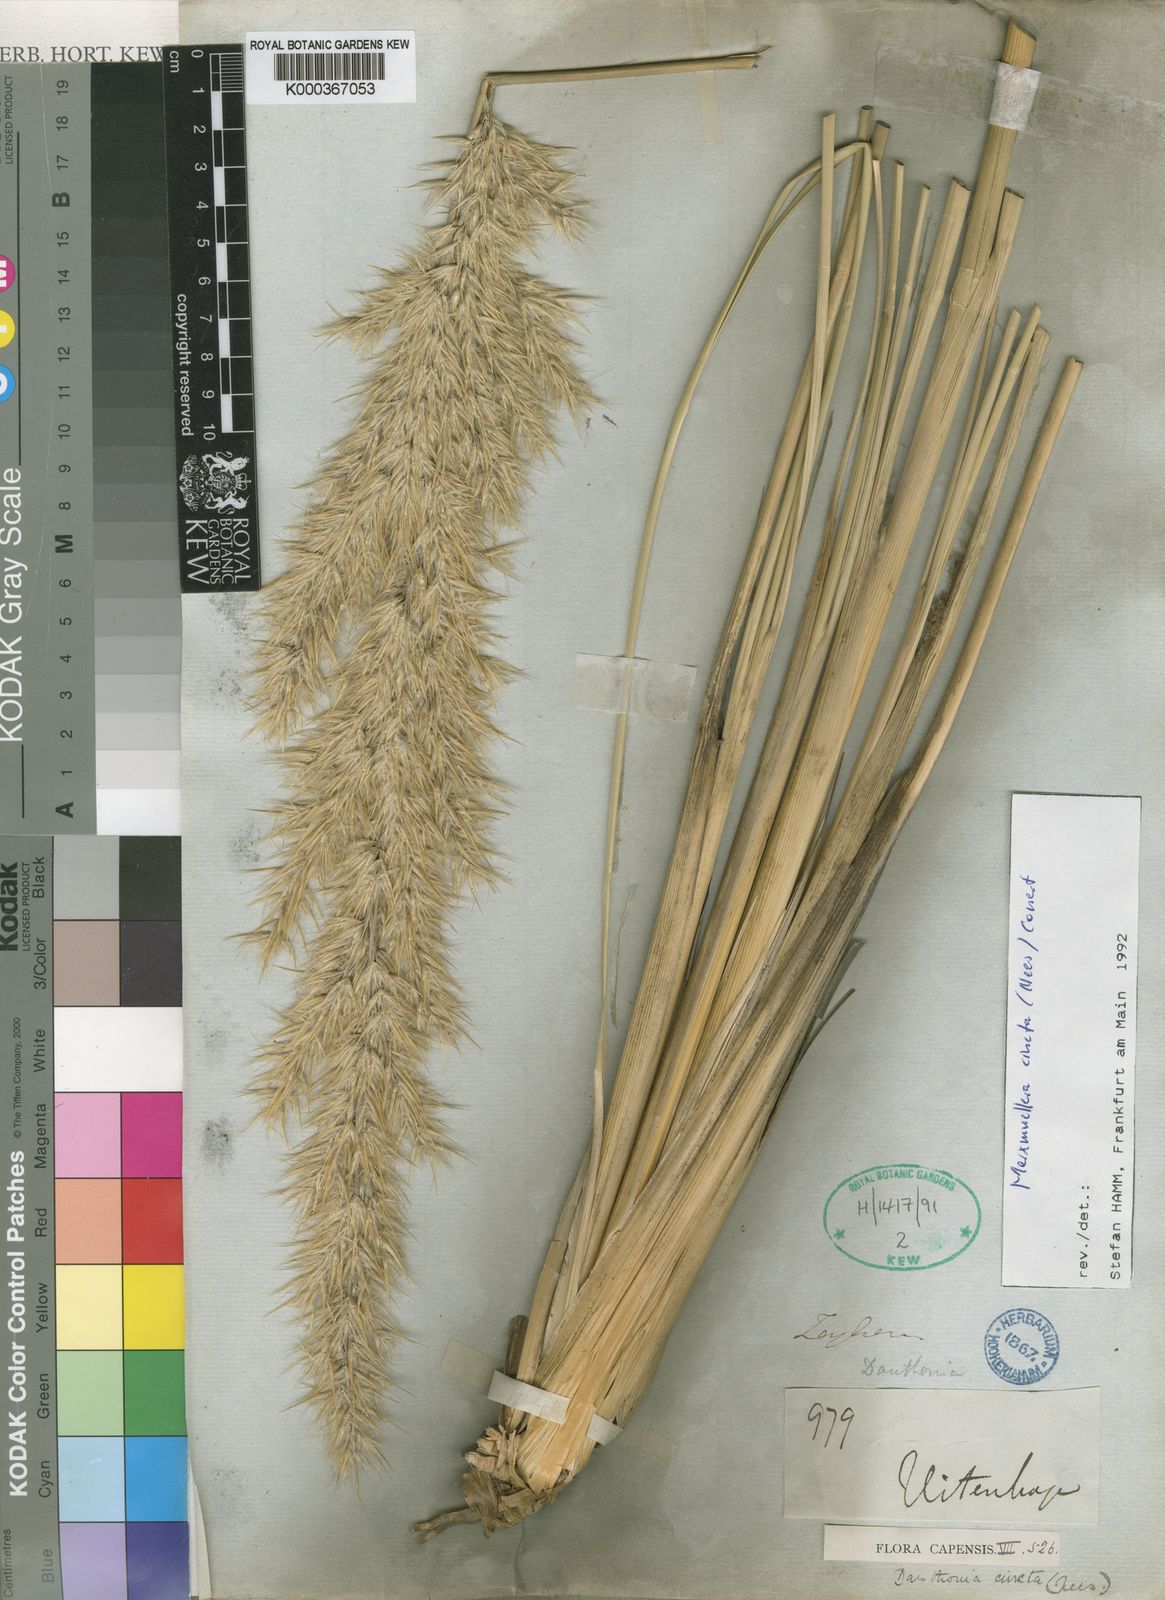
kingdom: Plantae
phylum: Tracheophyta
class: Liliopsida
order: Poales
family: Poaceae
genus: Rytidosperma
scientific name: Rytidosperma
